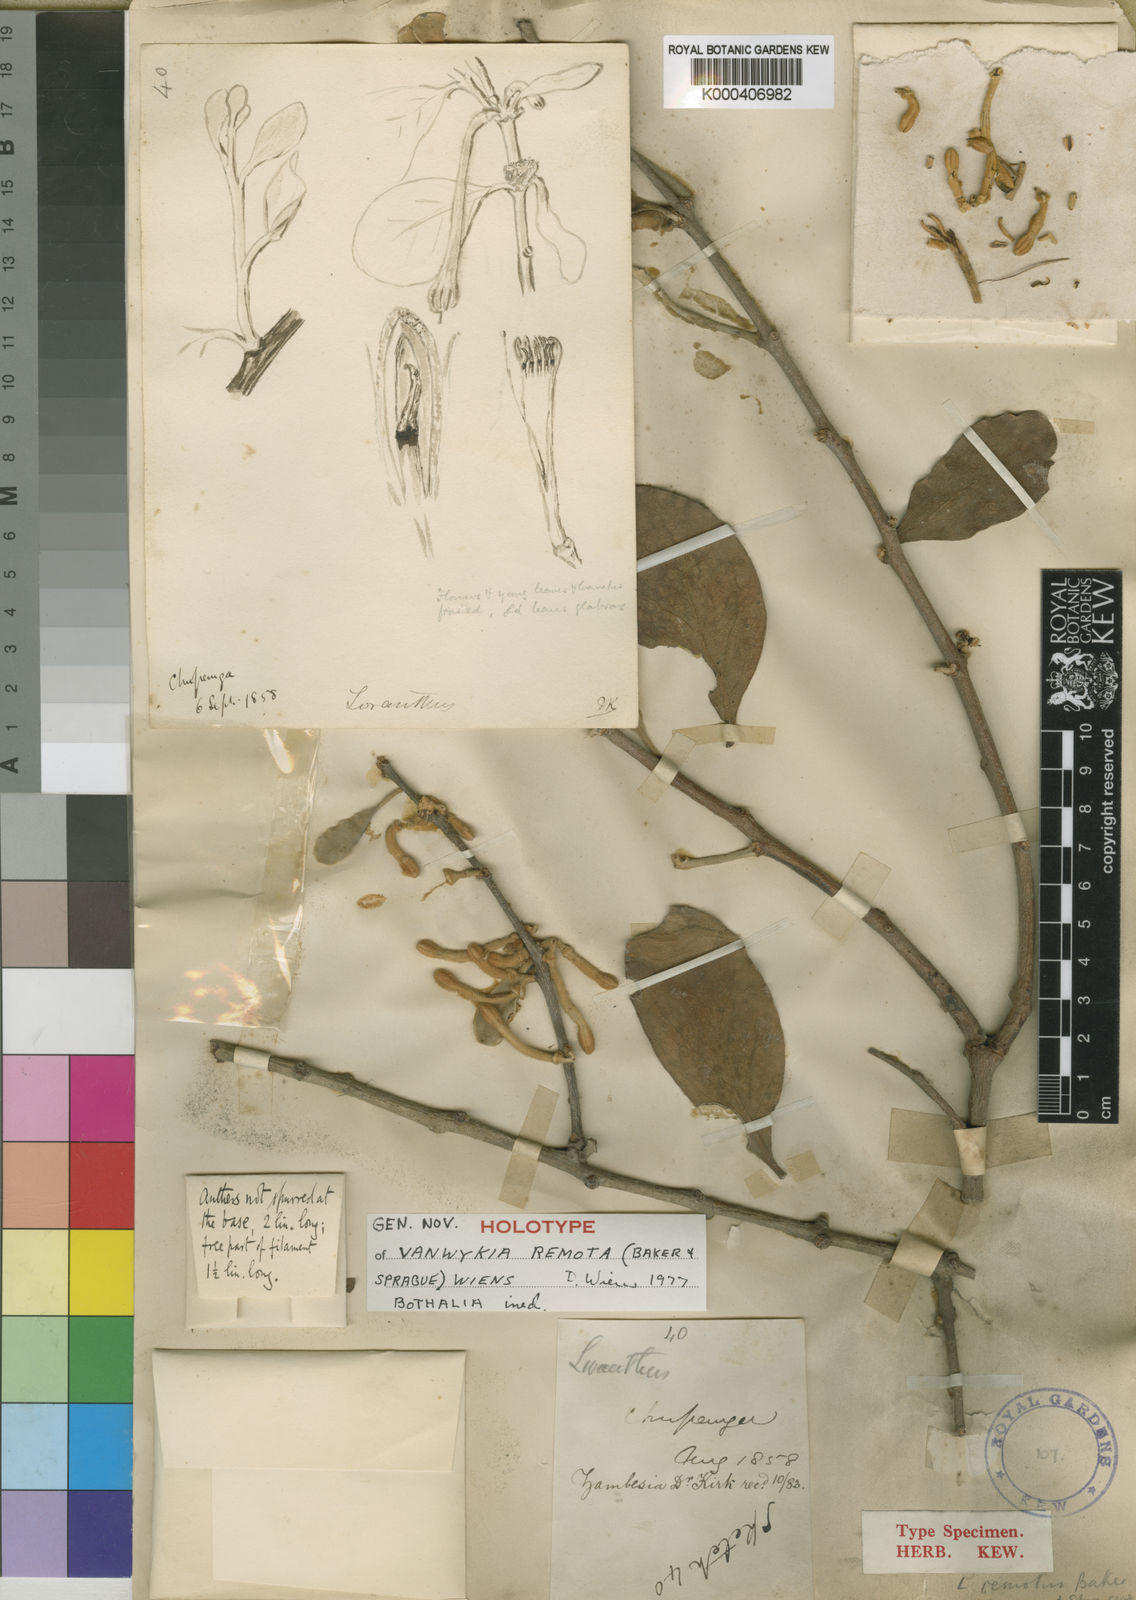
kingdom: Plantae
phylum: Tracheophyta
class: Magnoliopsida
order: Santalales
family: Loranthaceae
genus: Vanwykia
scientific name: Vanwykia remota
